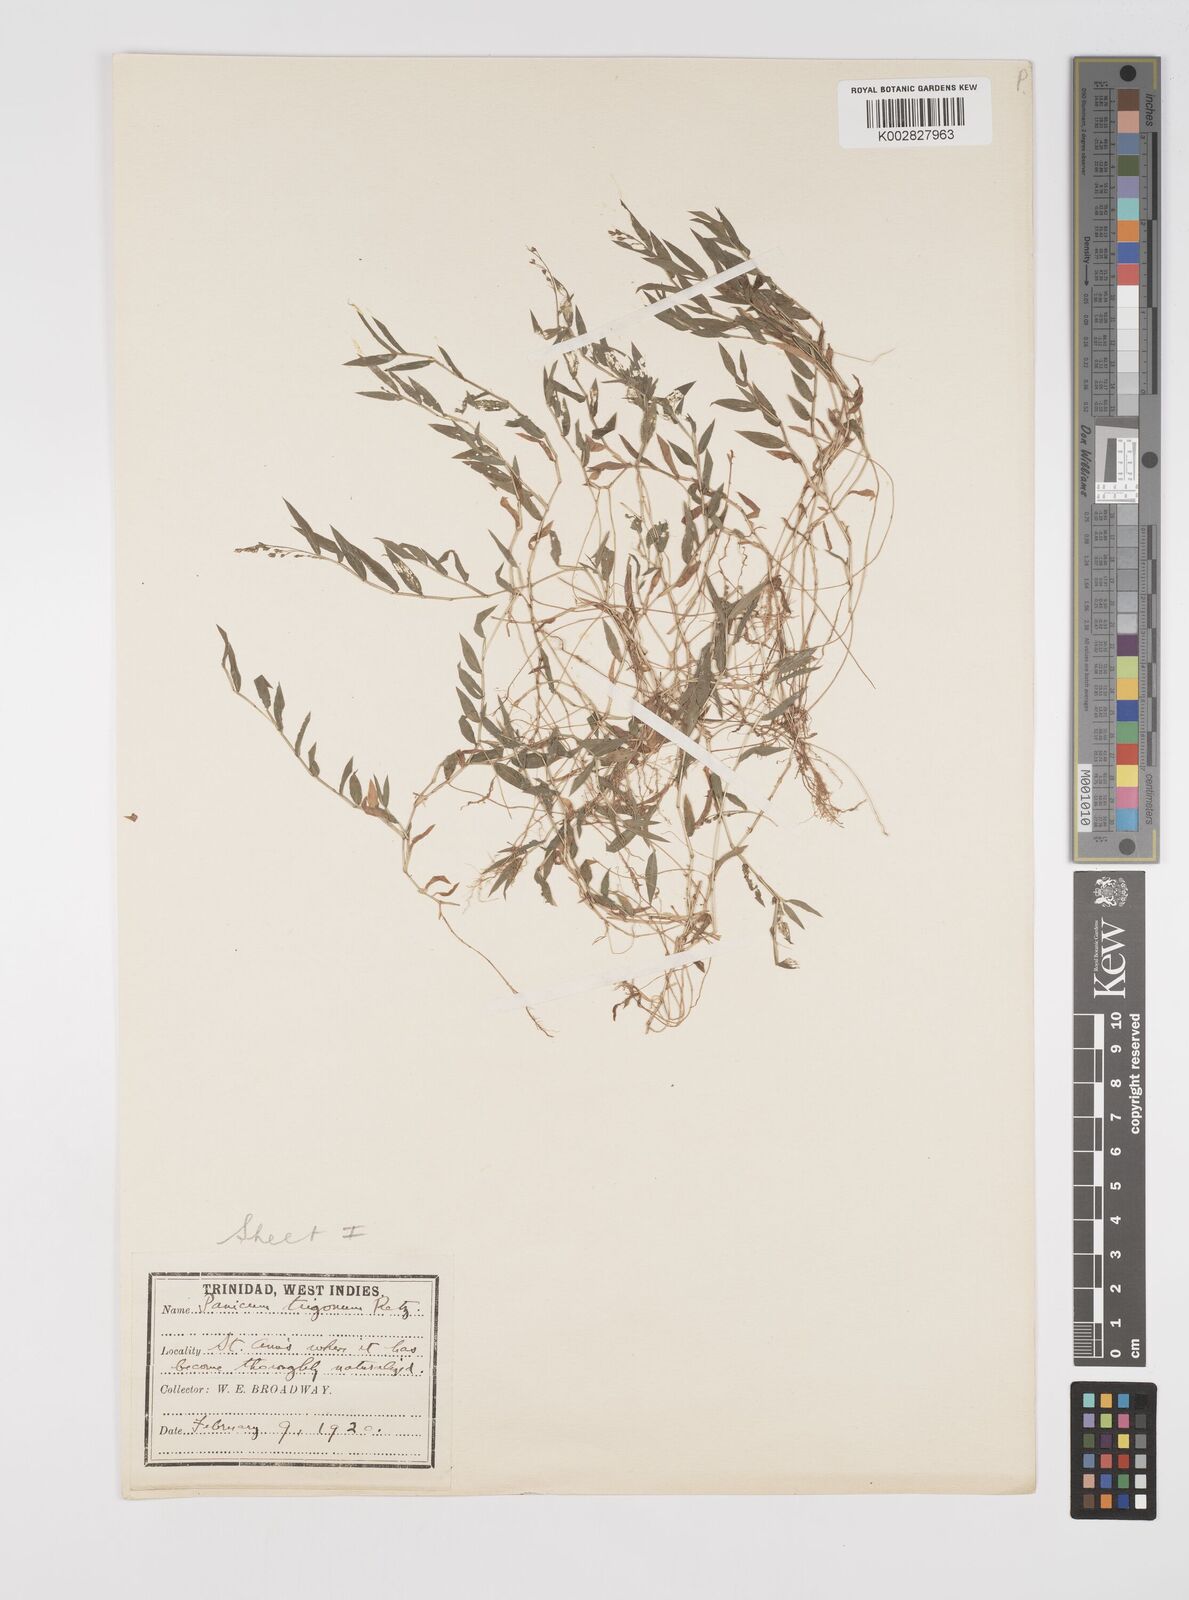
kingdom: Plantae
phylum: Tracheophyta
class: Liliopsida
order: Poales
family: Poaceae
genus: Cyrtococcum
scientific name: Cyrtococcum trigonum
